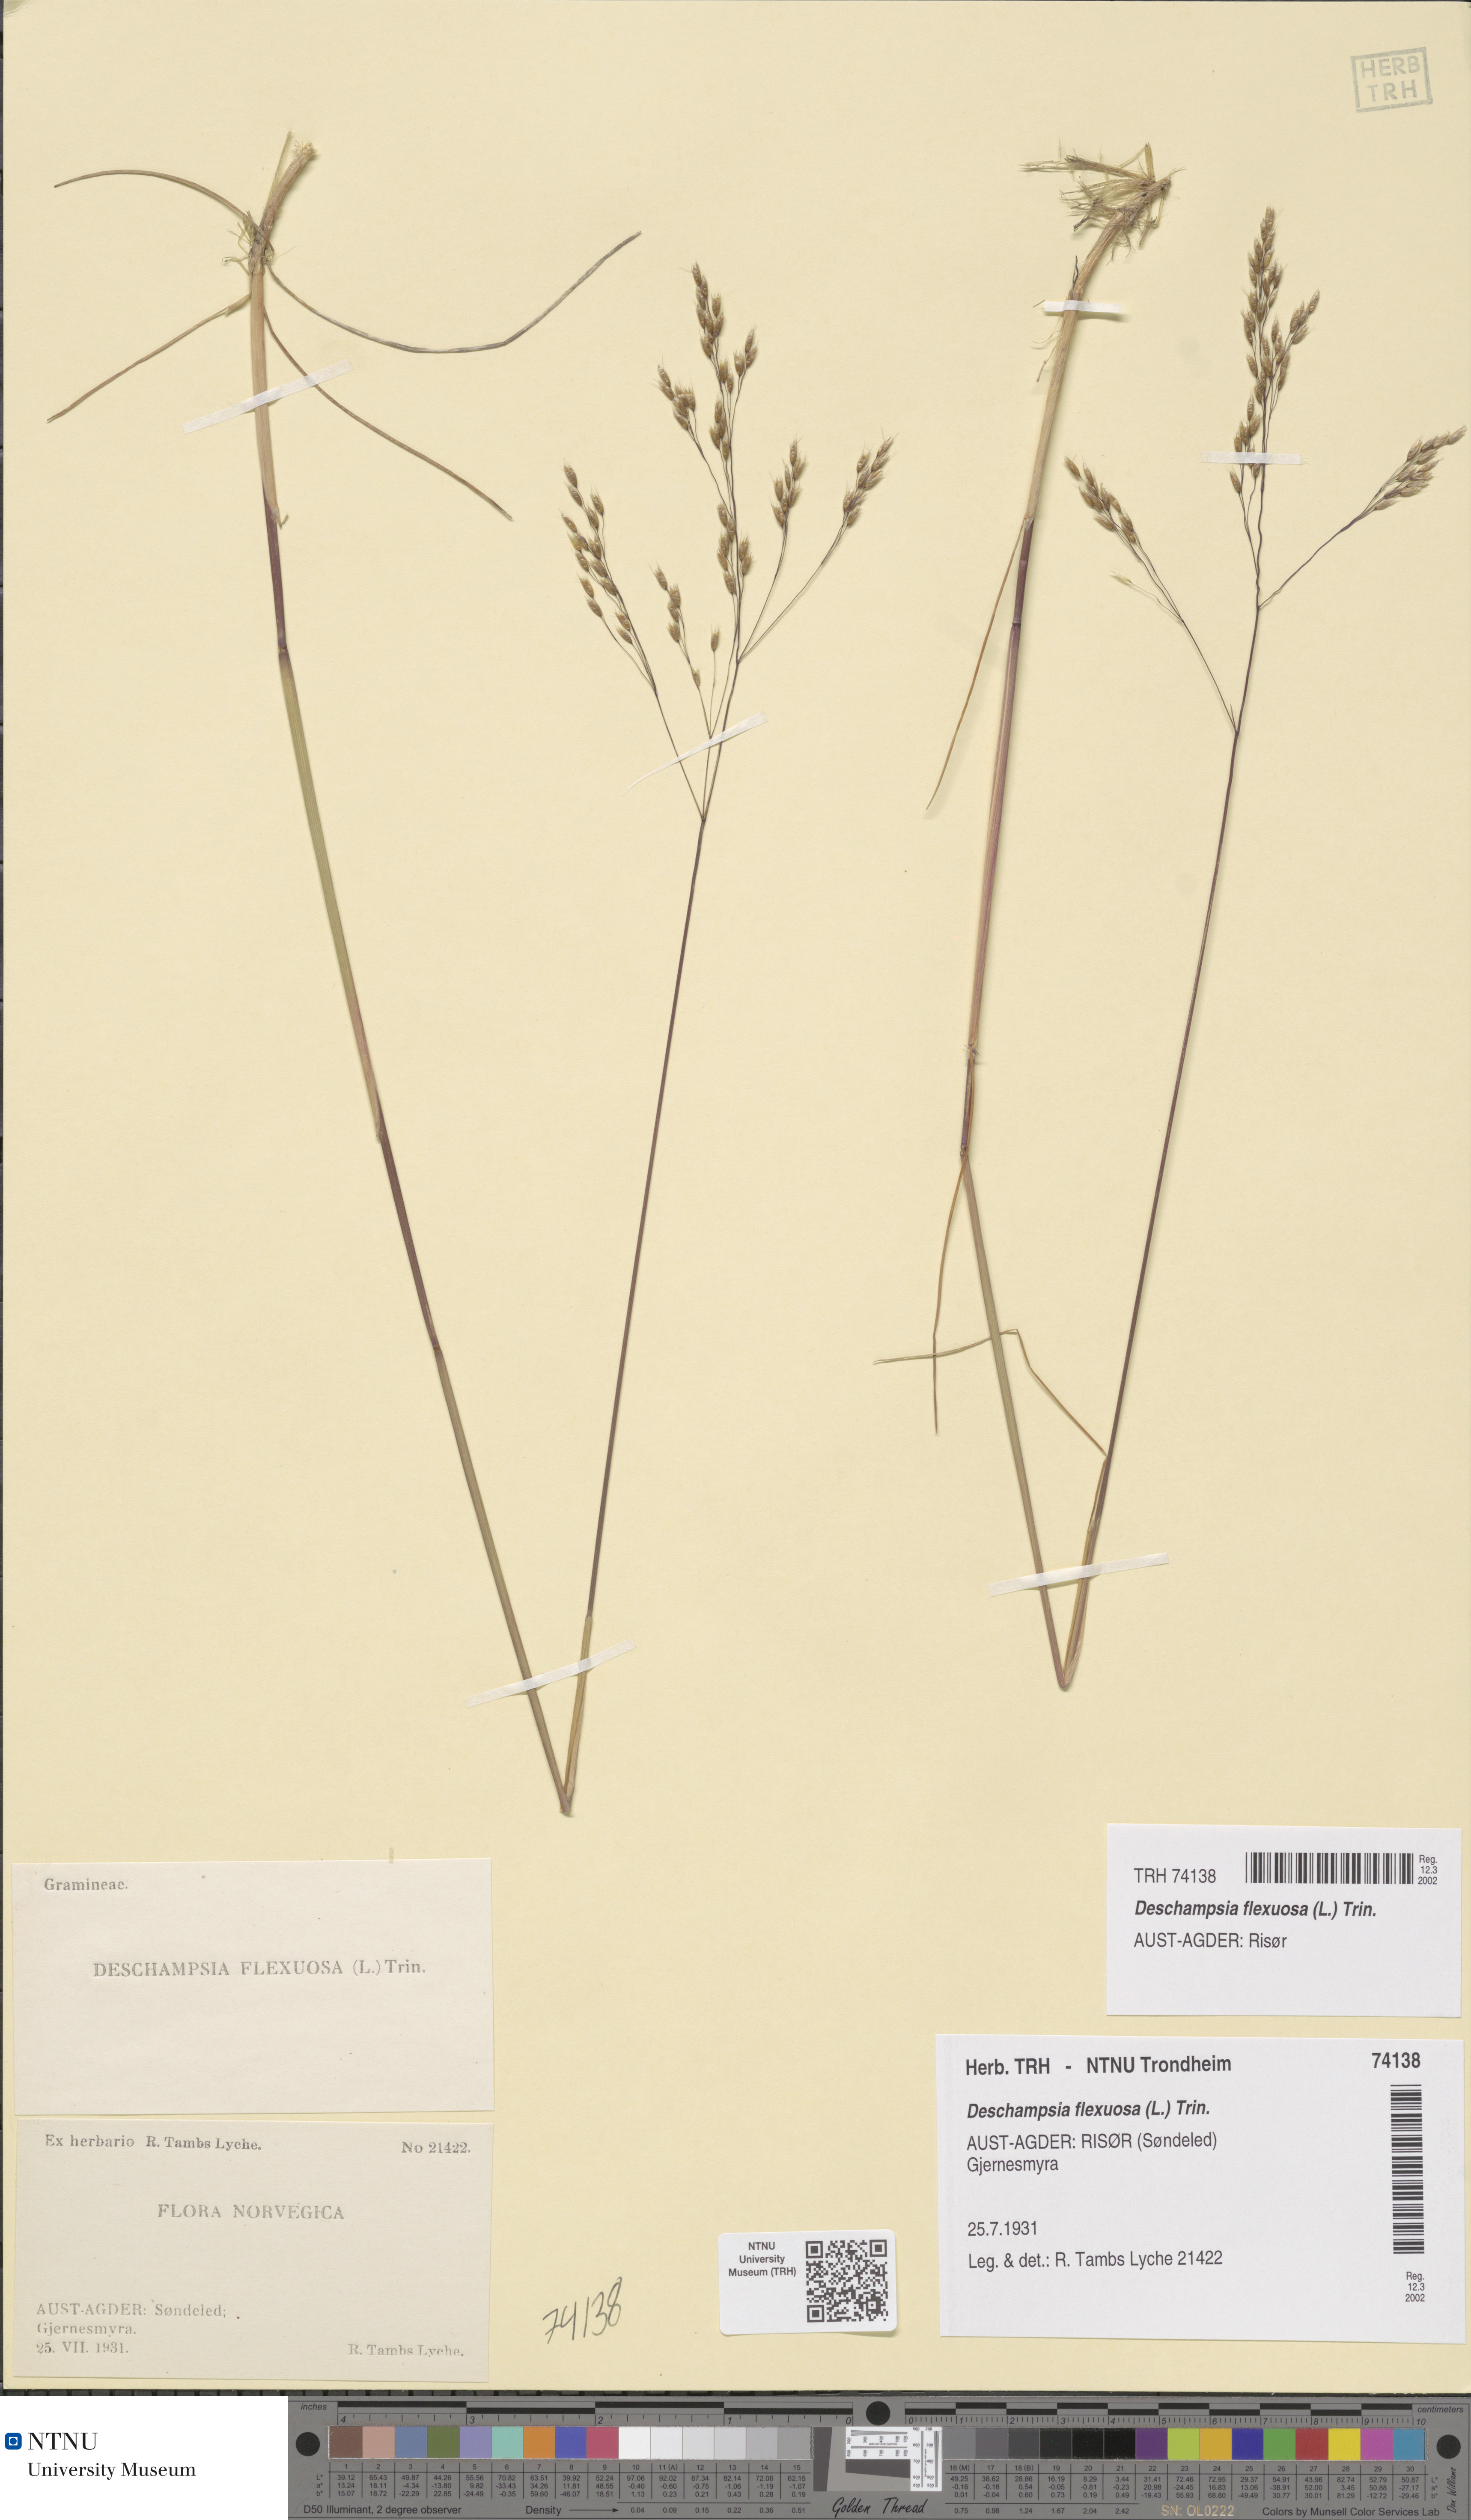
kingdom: Plantae
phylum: Tracheophyta
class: Liliopsida
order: Poales
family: Poaceae
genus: Avenella
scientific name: Avenella flexuosa
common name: Wavy hairgrass
